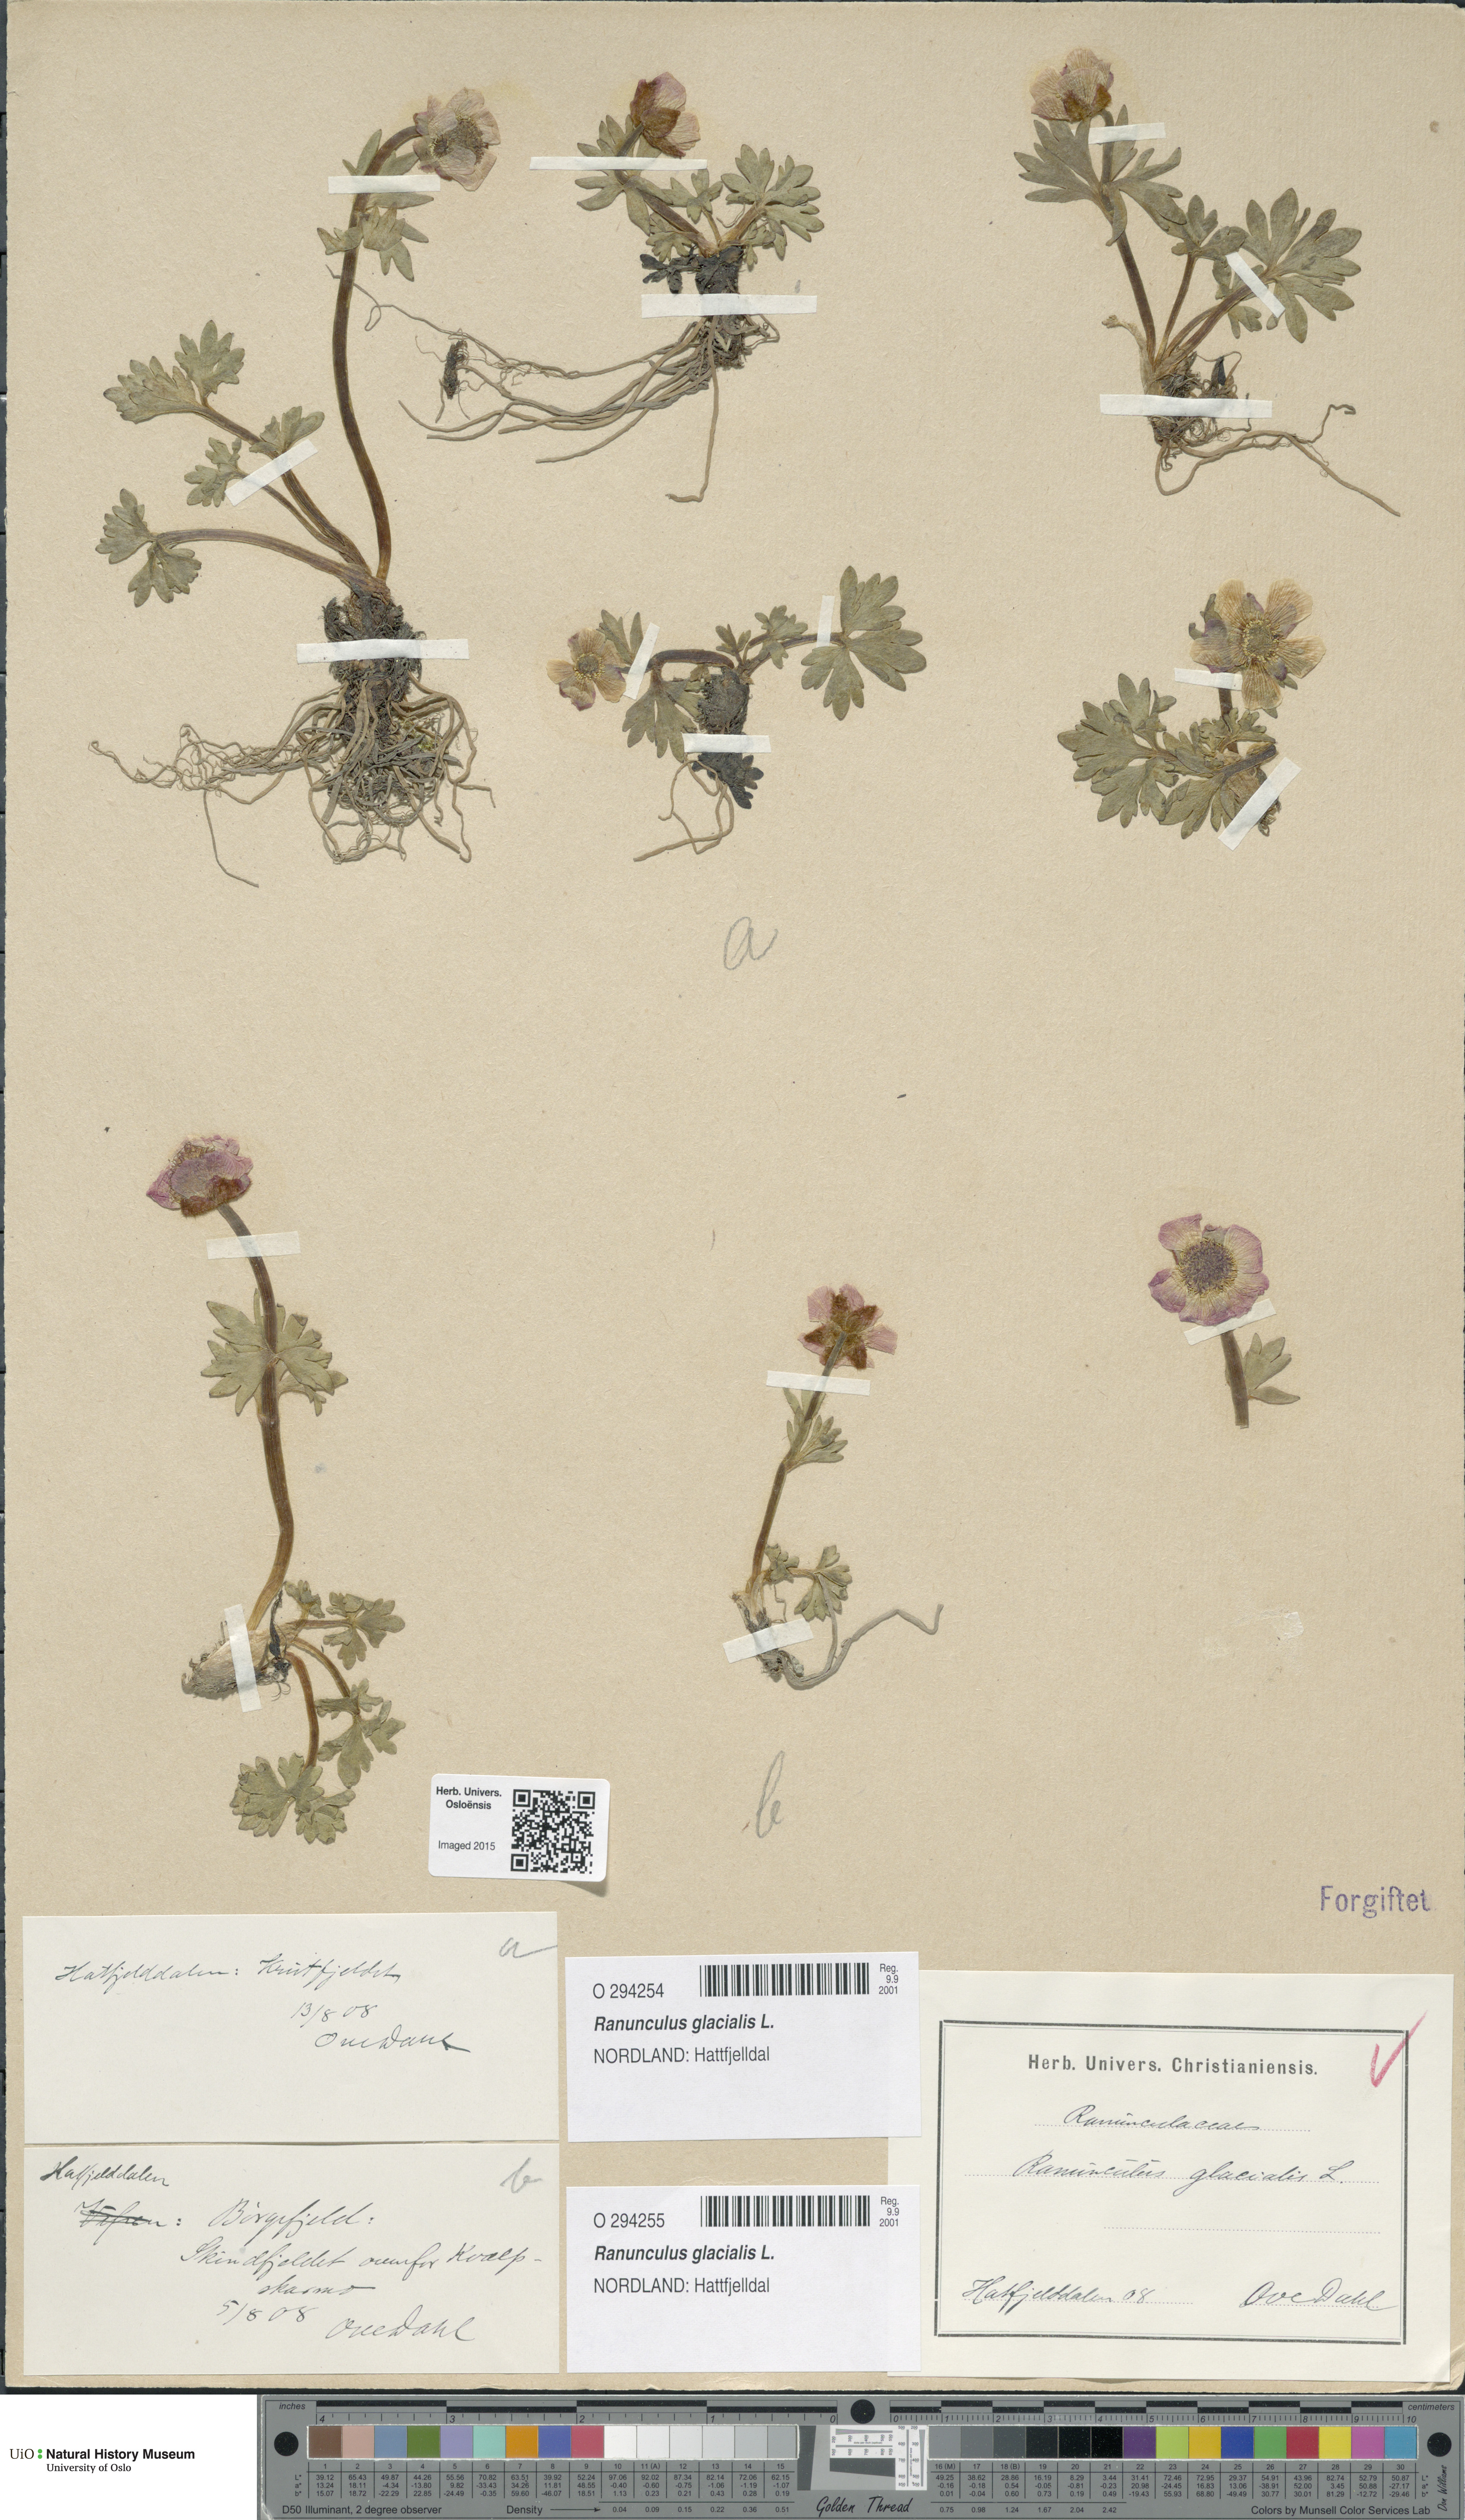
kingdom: Plantae
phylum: Tracheophyta
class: Magnoliopsida
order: Ranunculales
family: Ranunculaceae
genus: Ranunculus
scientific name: Ranunculus glacialis
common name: Glacier buttercup
